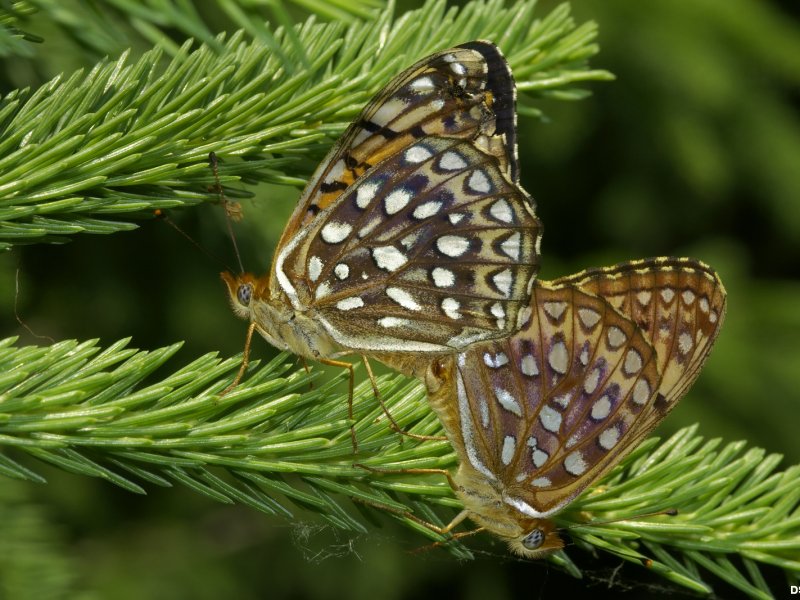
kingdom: Animalia
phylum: Arthropoda
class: Insecta
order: Lepidoptera
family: Nymphalidae
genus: Speyeria
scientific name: Speyeria atlantis
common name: Atlantis Fritillary
